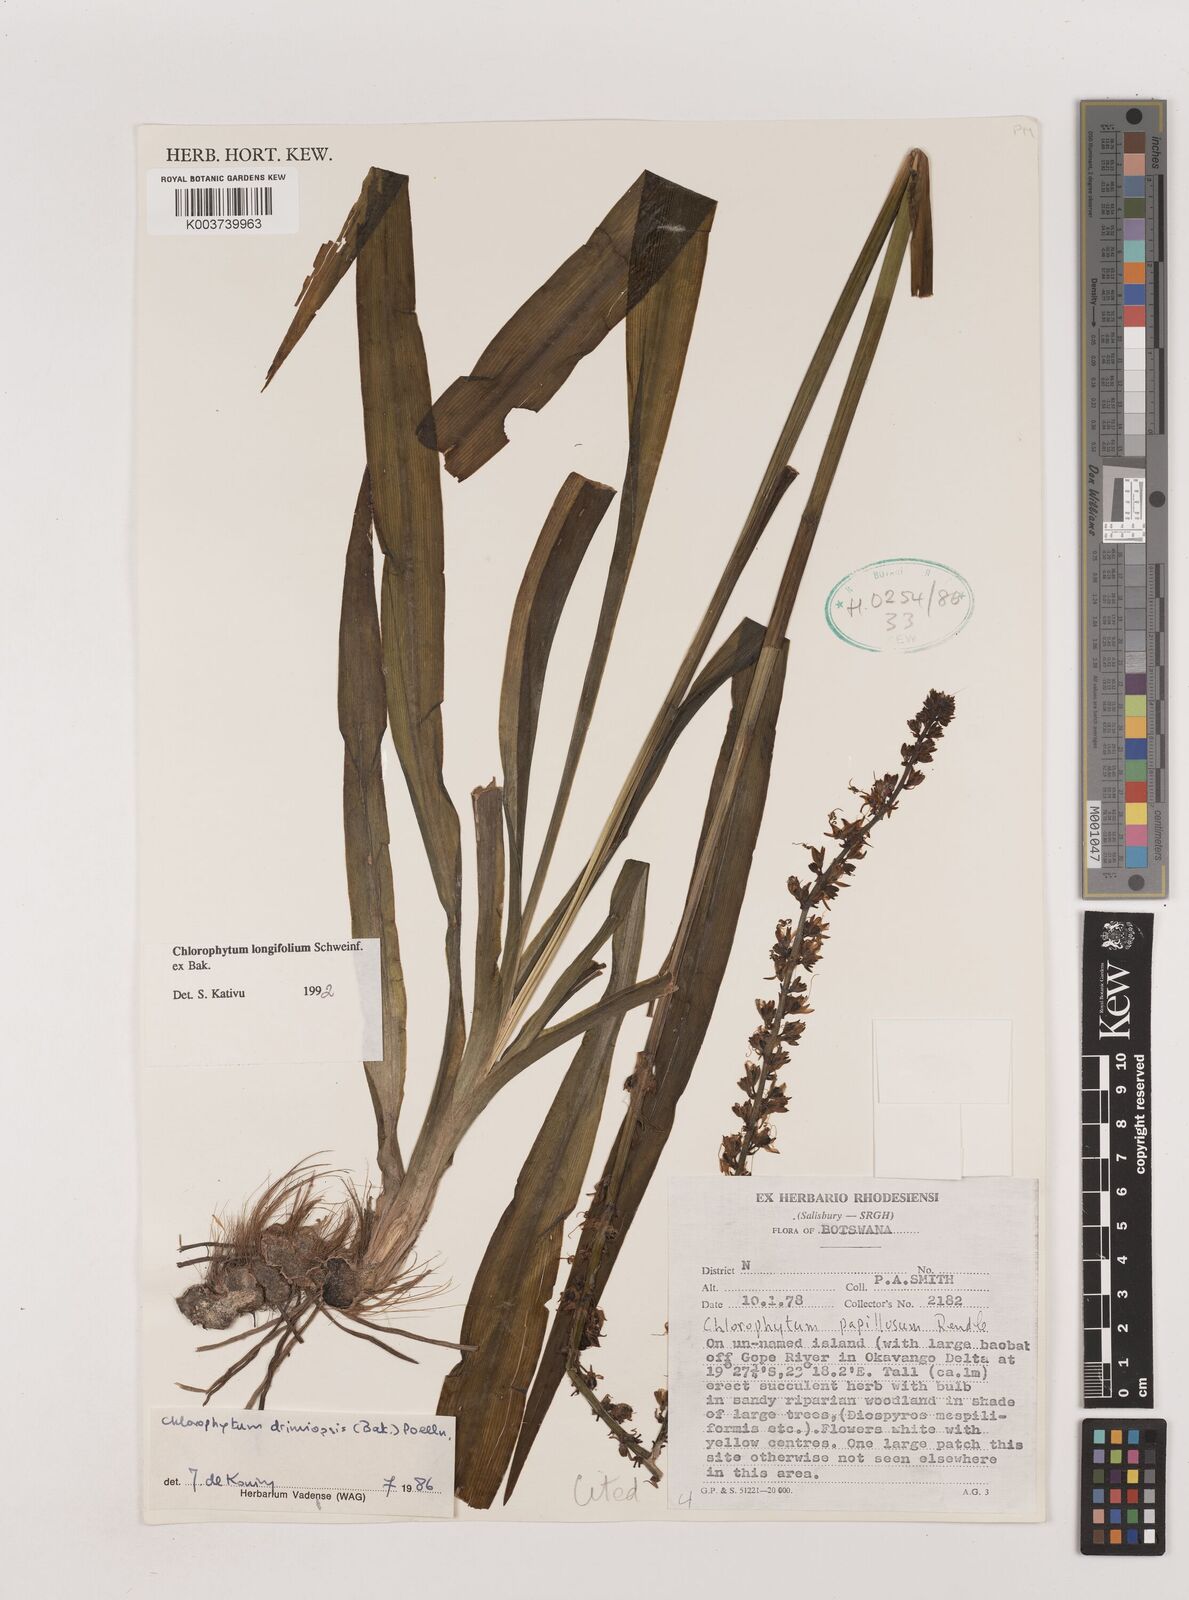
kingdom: Plantae
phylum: Tracheophyta
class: Liliopsida
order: Asparagales
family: Asparagaceae
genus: Chlorophytum
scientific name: Chlorophytum longifolium
